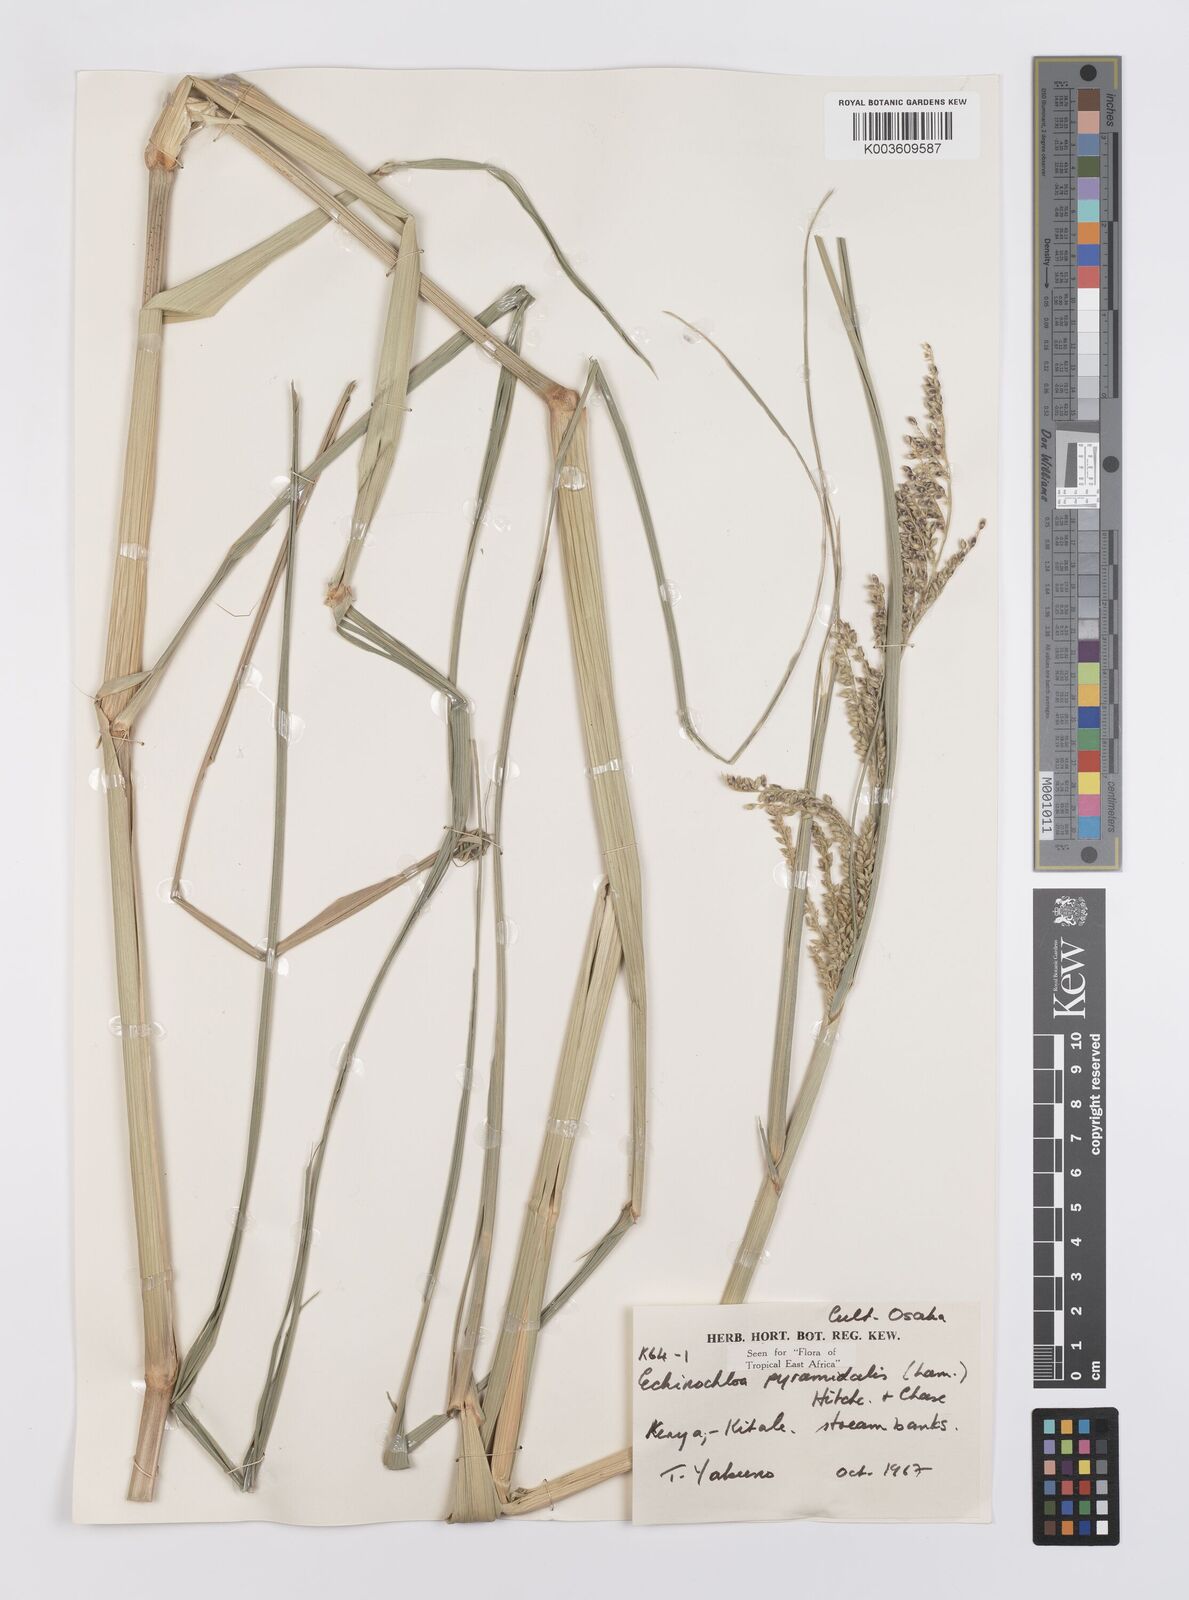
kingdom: Plantae
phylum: Tracheophyta
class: Liliopsida
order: Poales
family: Poaceae
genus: Echinochloa
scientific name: Echinochloa pyramidalis
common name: Antelope grass
